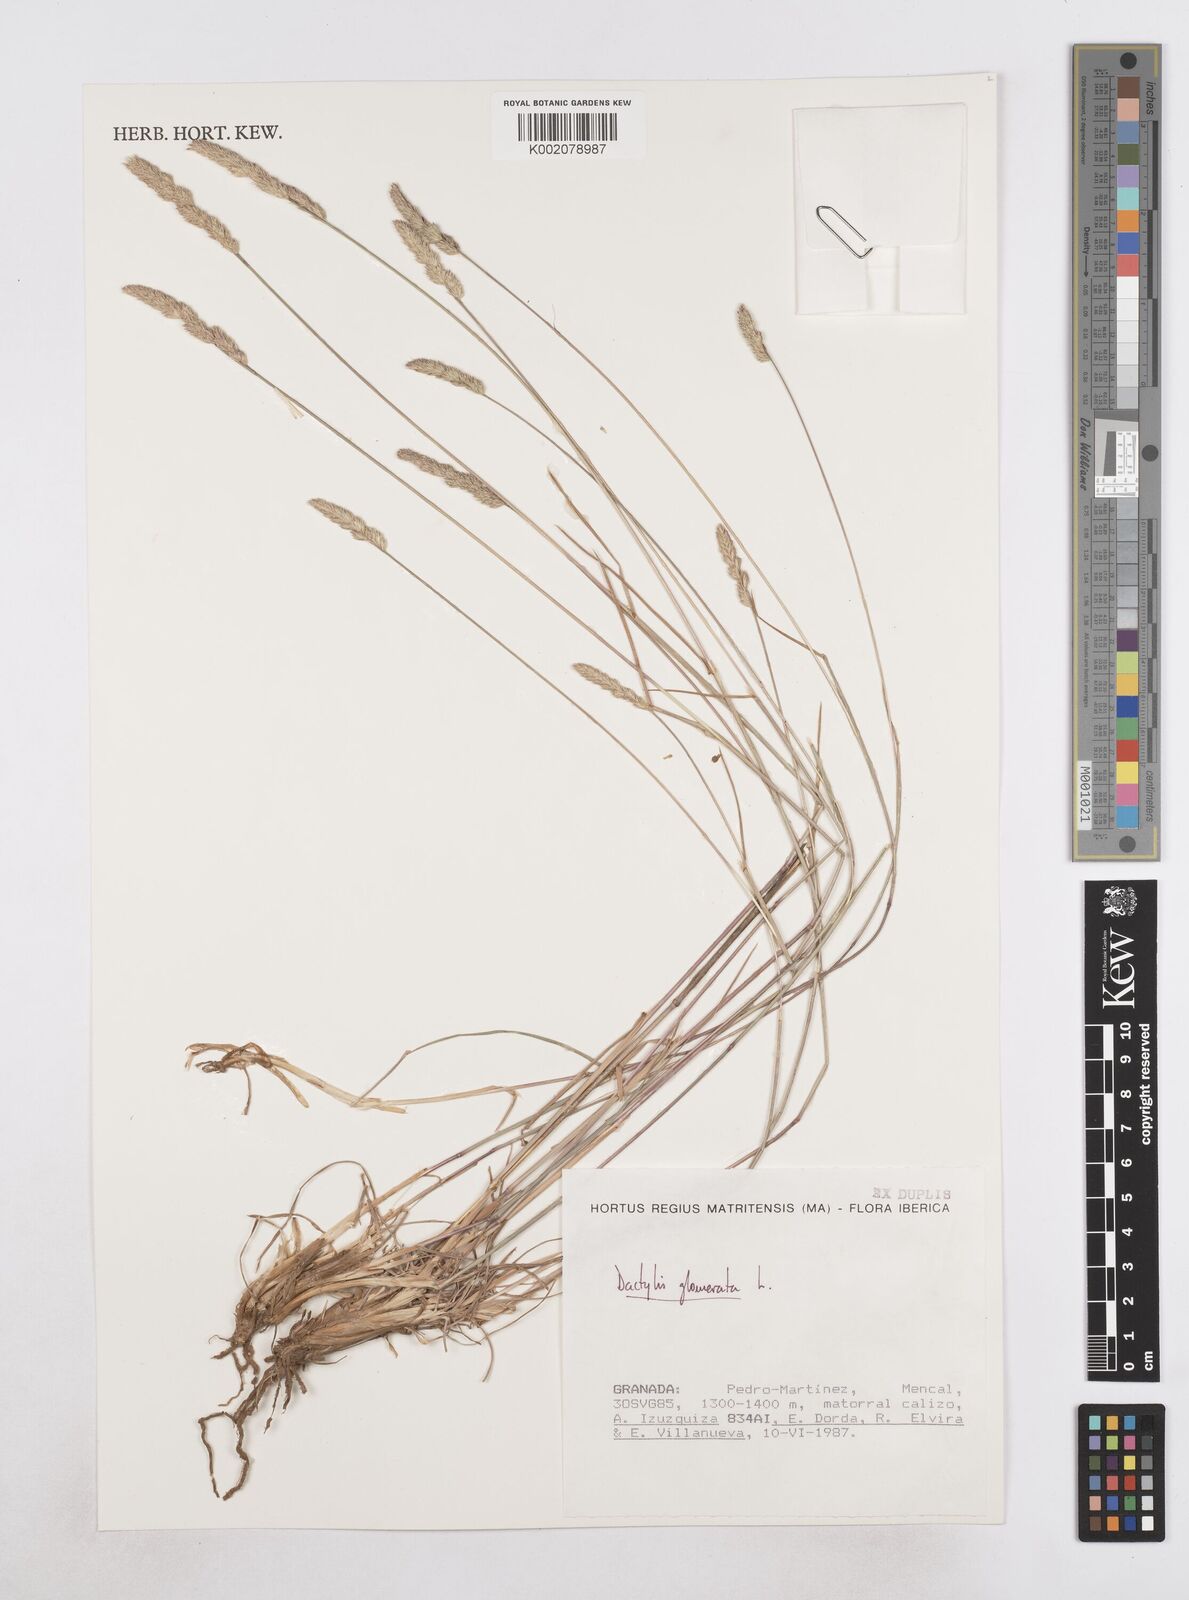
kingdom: Plantae
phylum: Tracheophyta
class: Liliopsida
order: Poales
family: Poaceae
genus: Dactylis
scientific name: Dactylis glomerata
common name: Orchardgrass
